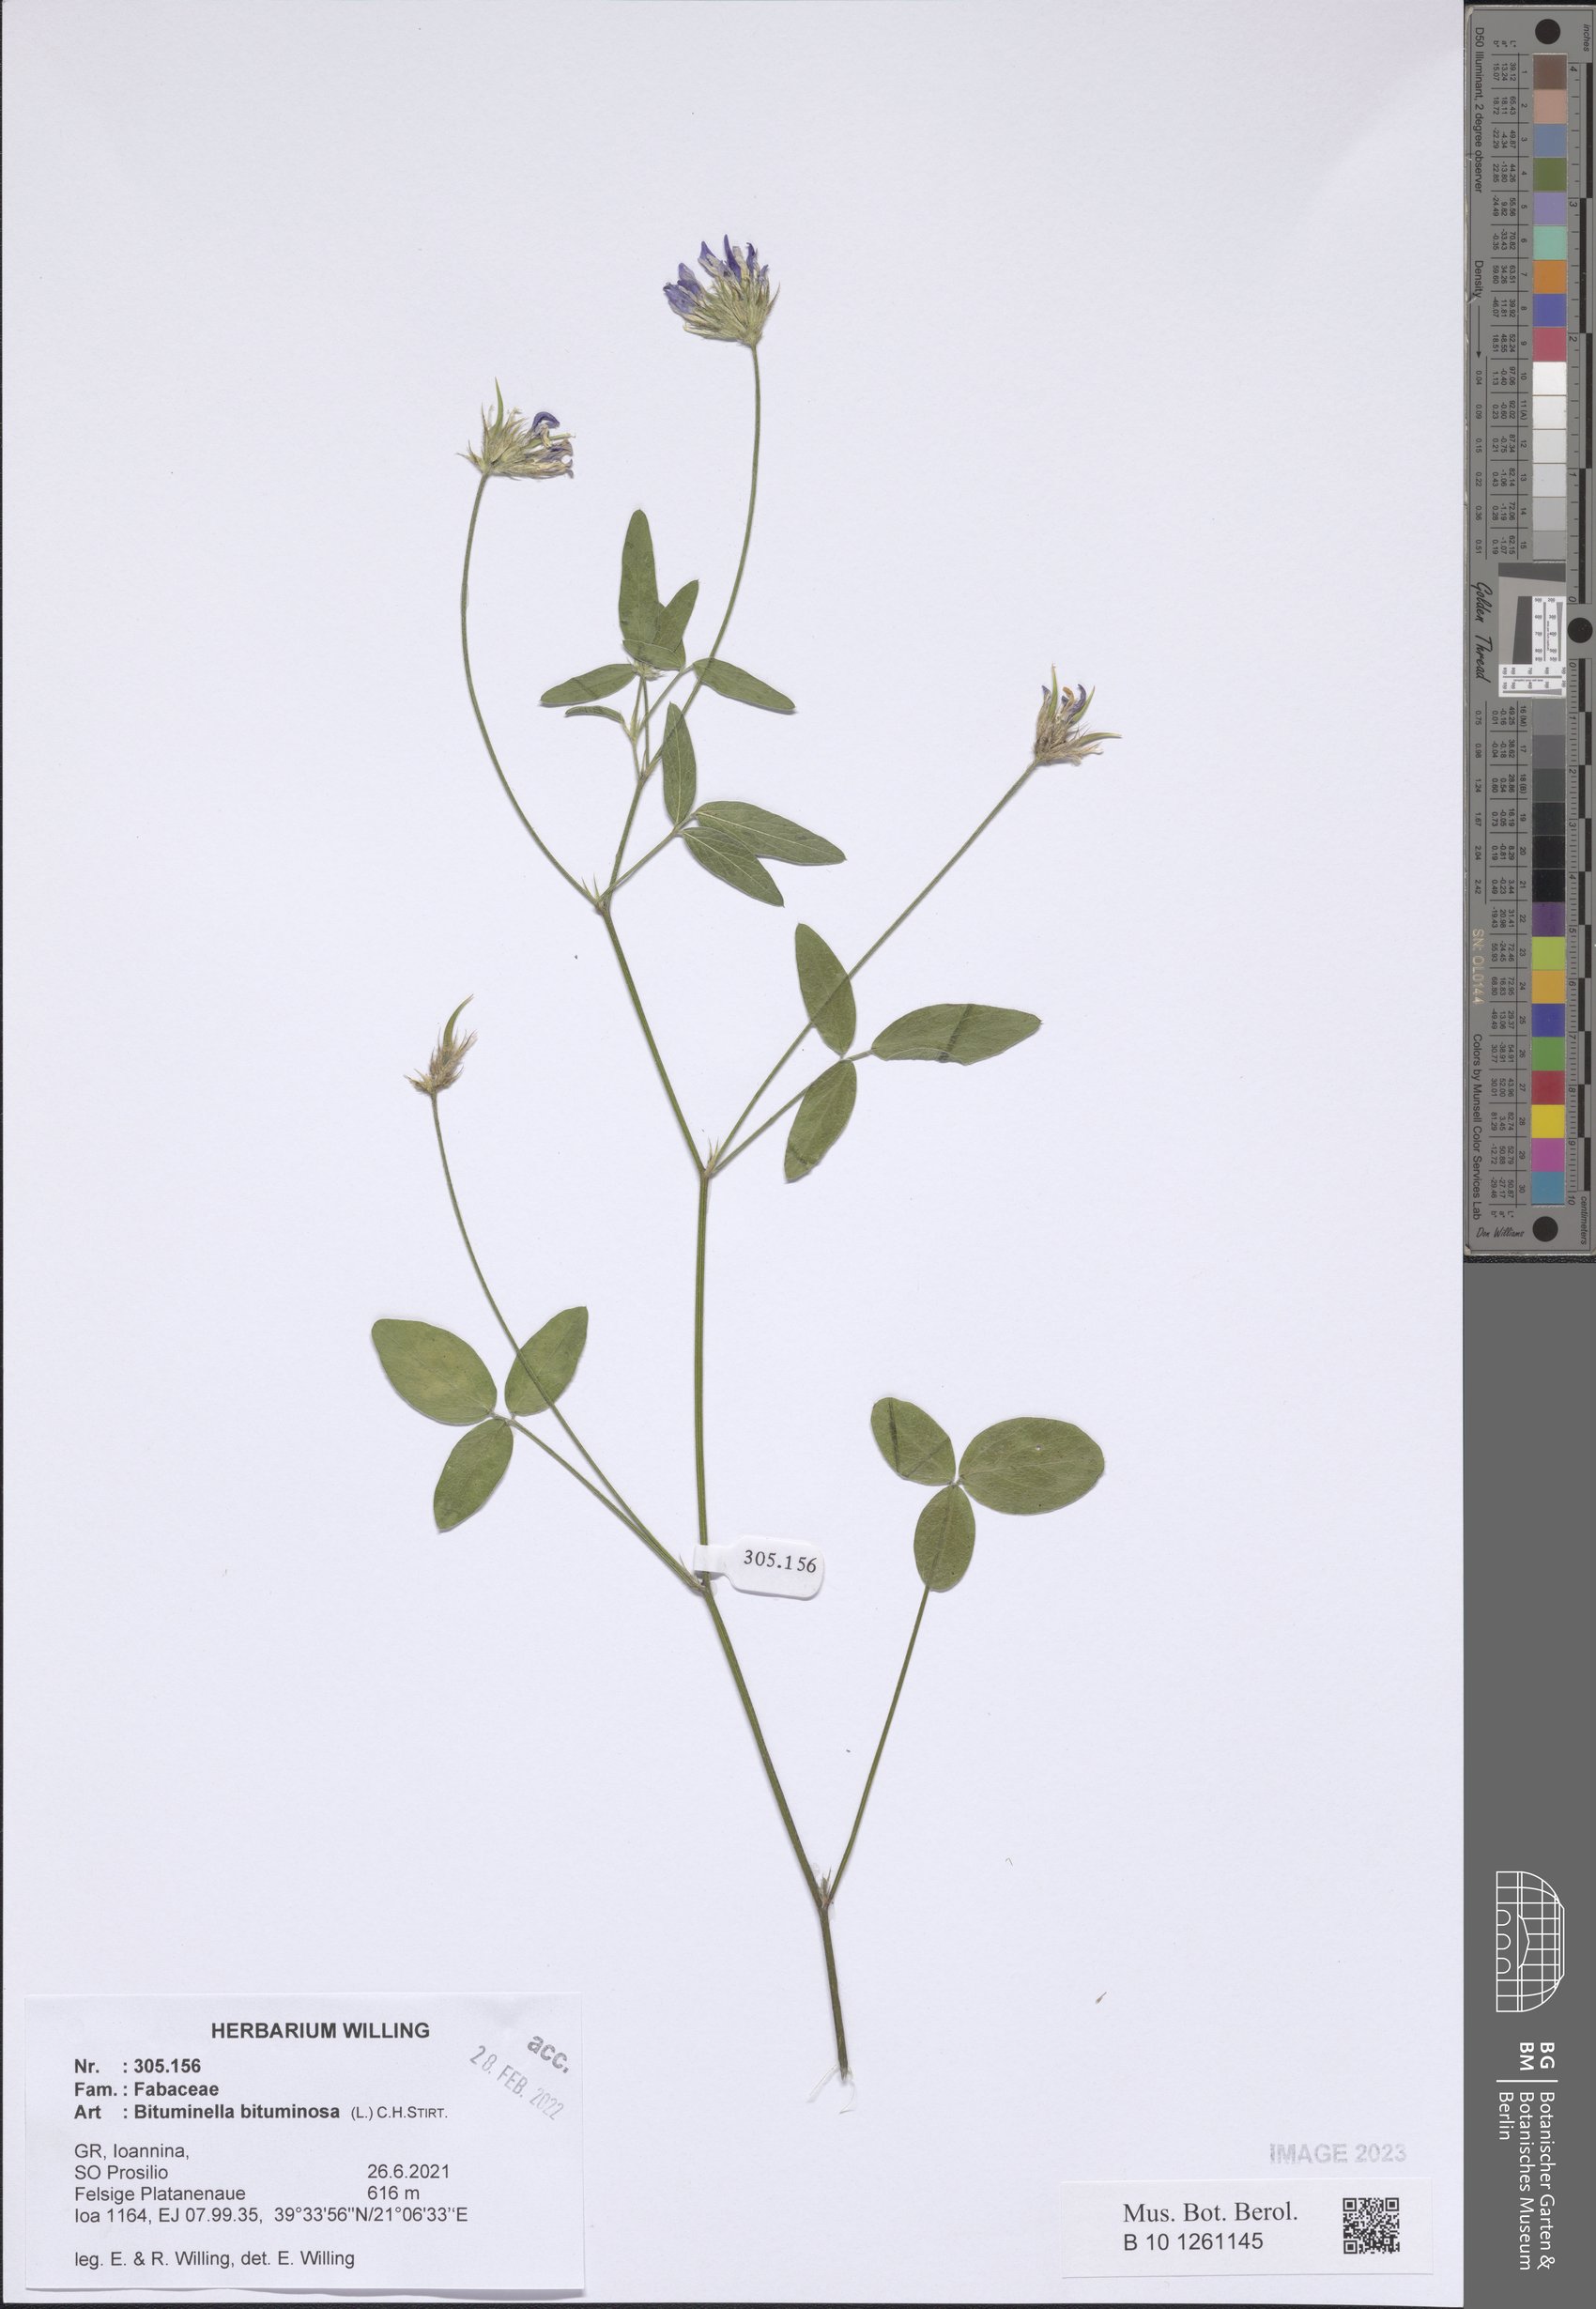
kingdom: Plantae
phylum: Tracheophyta
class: Magnoliopsida
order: Fabales
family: Fabaceae
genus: Bituminaria
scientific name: Bituminaria bituminosa
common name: Arabian pea
